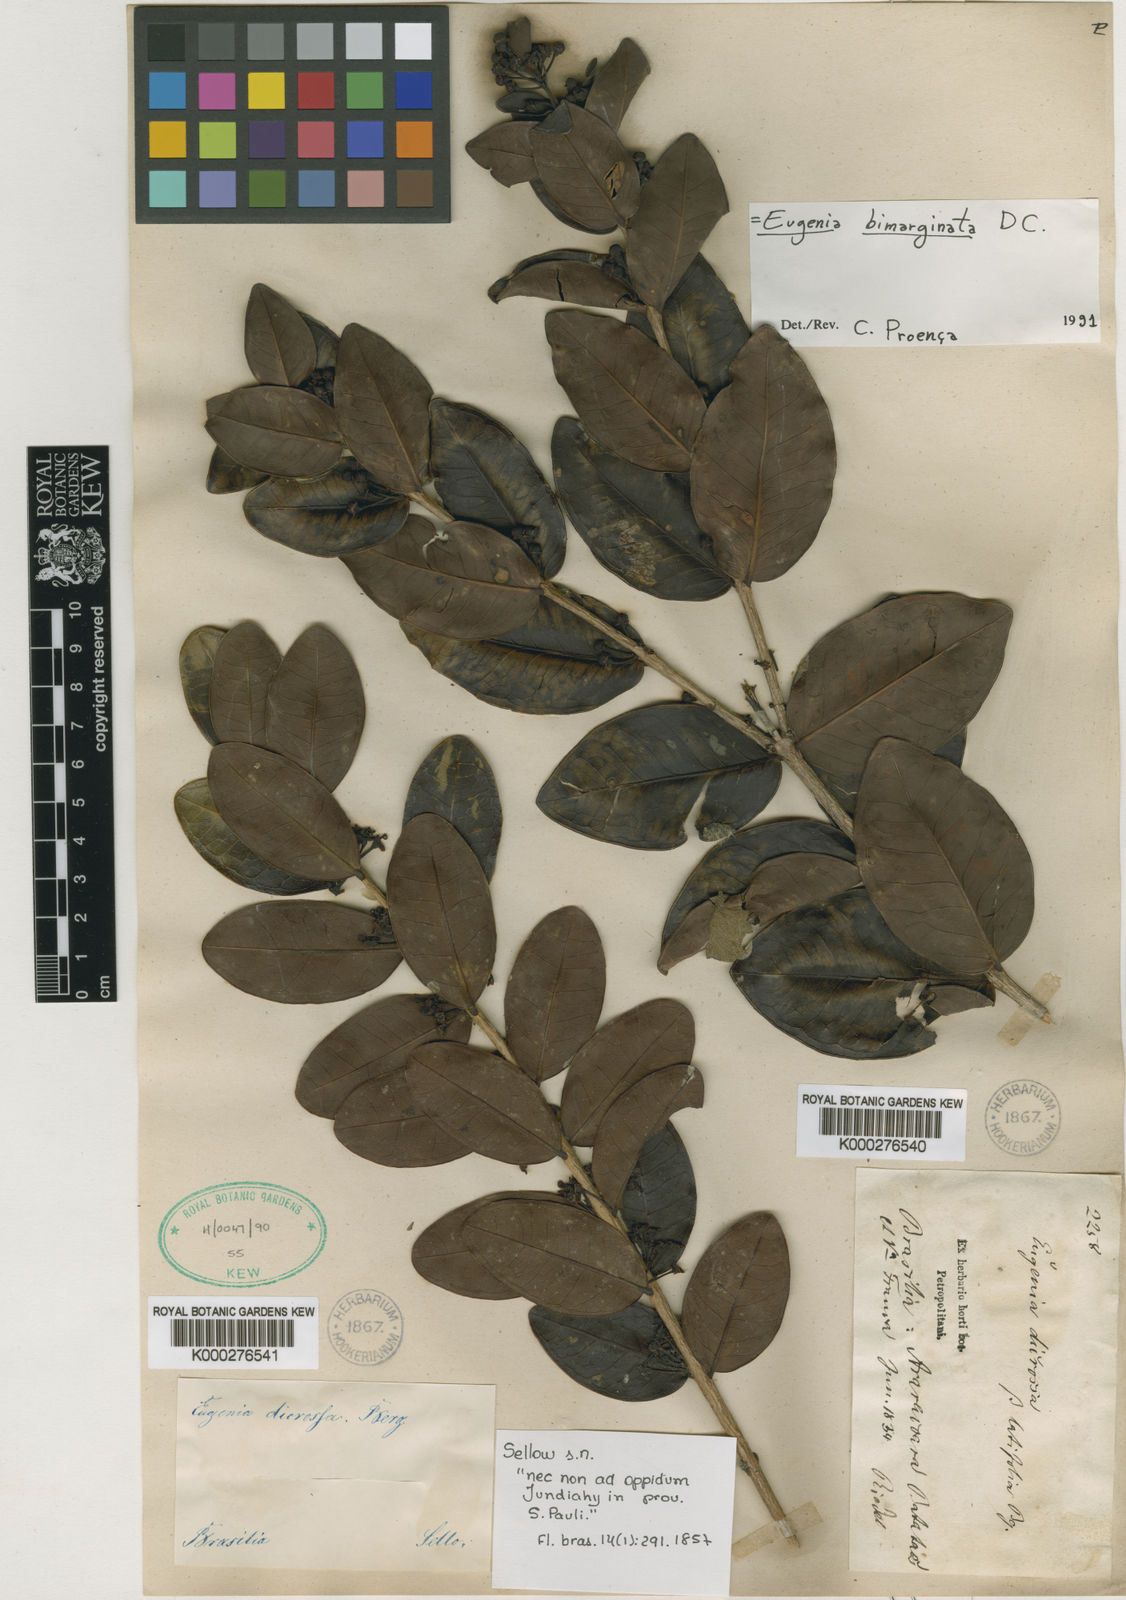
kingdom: Plantae
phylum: Tracheophyta
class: Magnoliopsida
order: Myrtales
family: Myrtaceae
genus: Eugenia
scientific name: Eugenia bimarginata
